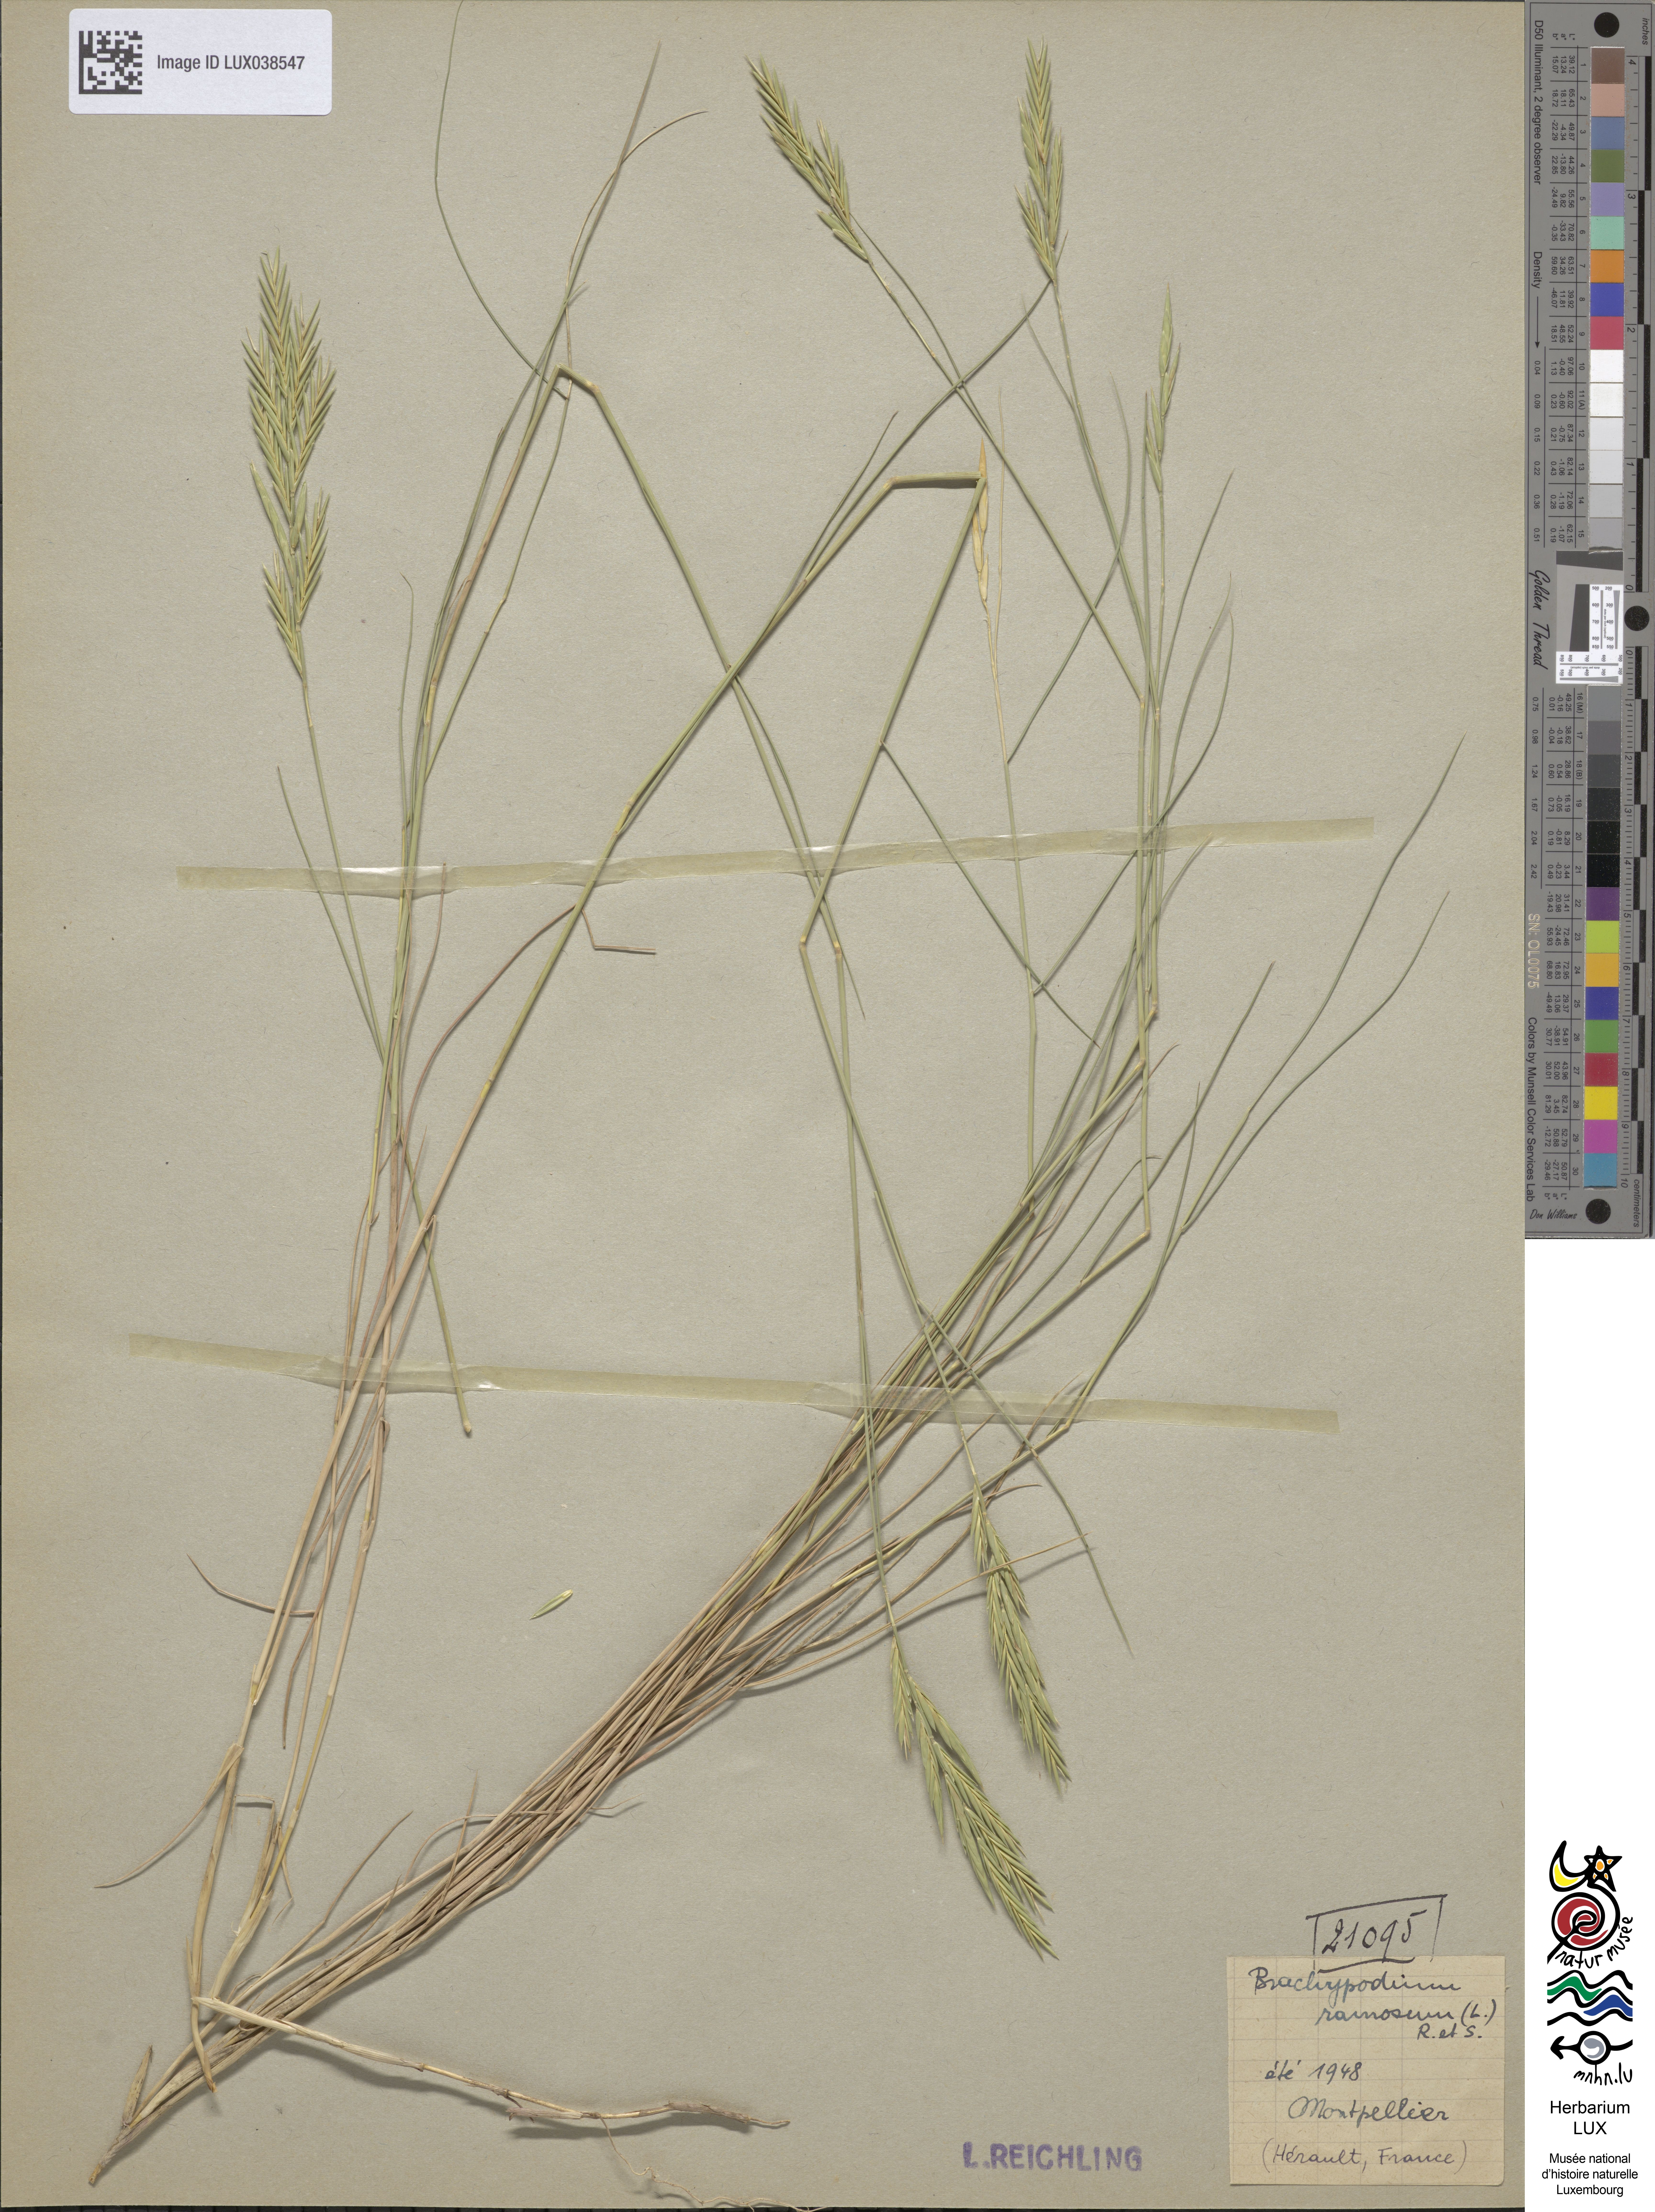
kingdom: Plantae
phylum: Tracheophyta
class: Liliopsida
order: Poales
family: Poaceae
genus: Brachypodium
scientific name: Brachypodium retusum
